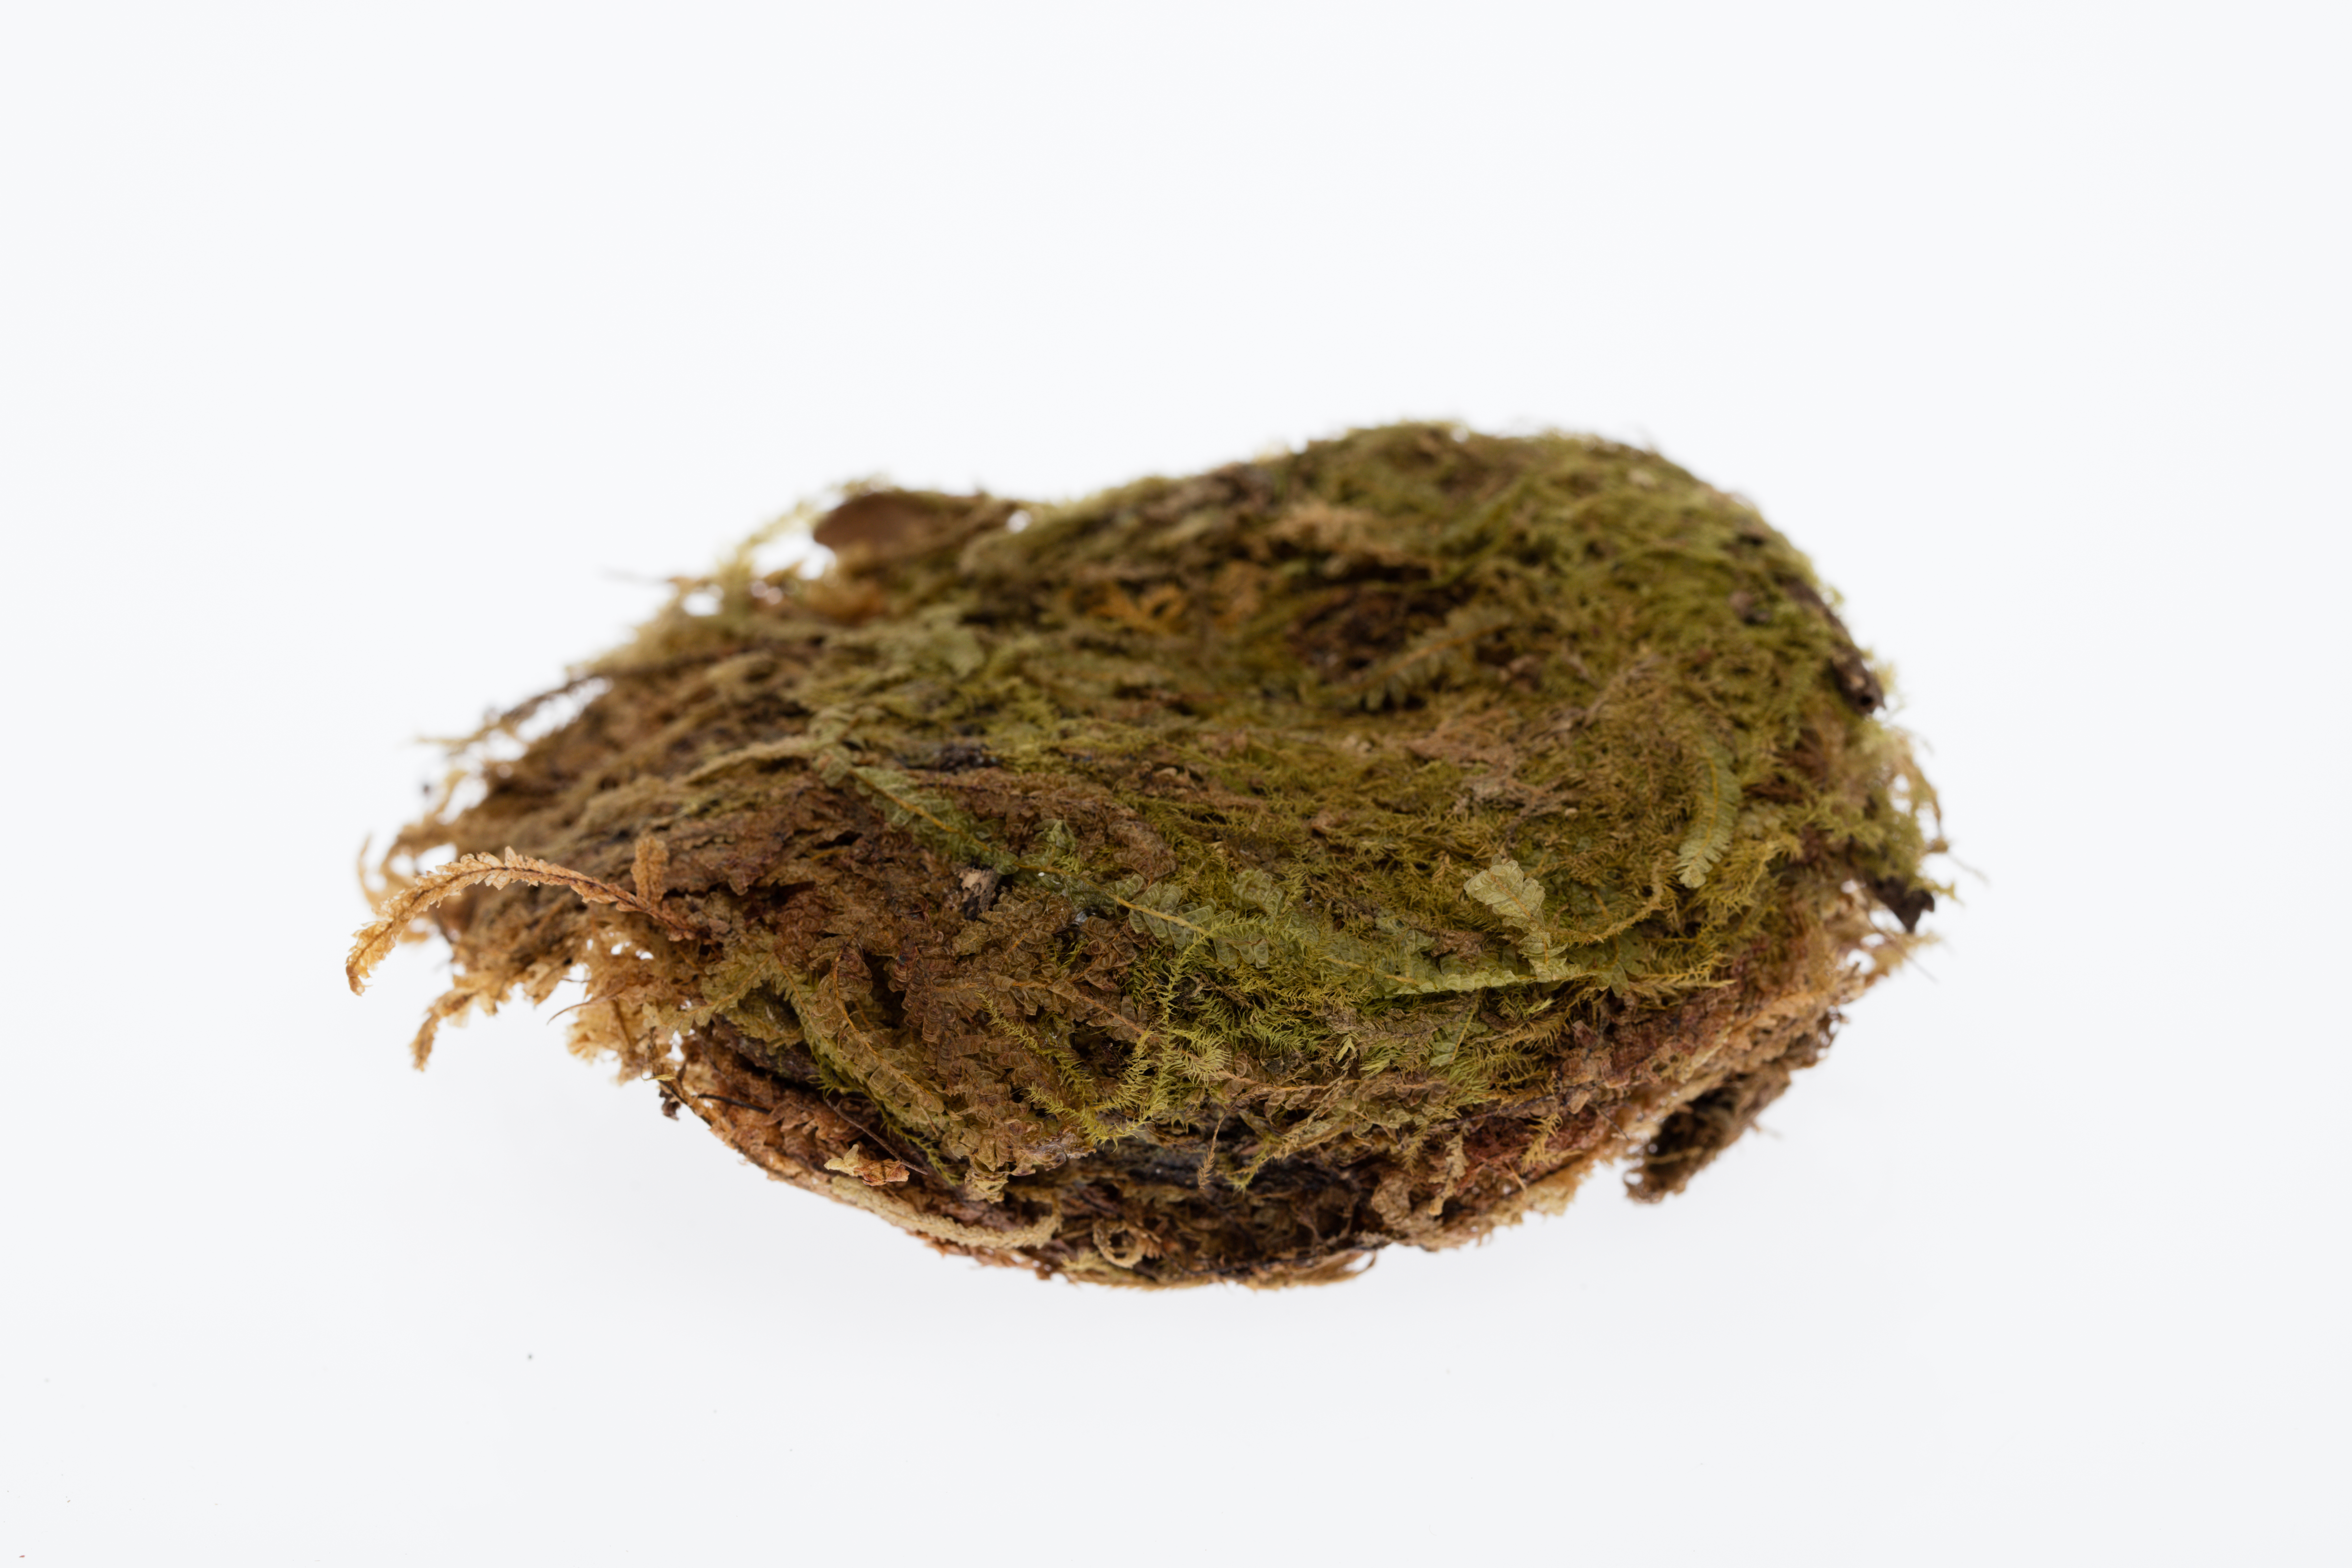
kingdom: Animalia
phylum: Chordata
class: Aves
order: Apodiformes
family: Apodidae
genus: Aerodramus
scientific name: Aerodramus spodiopygius
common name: White-rumped swiftlet
